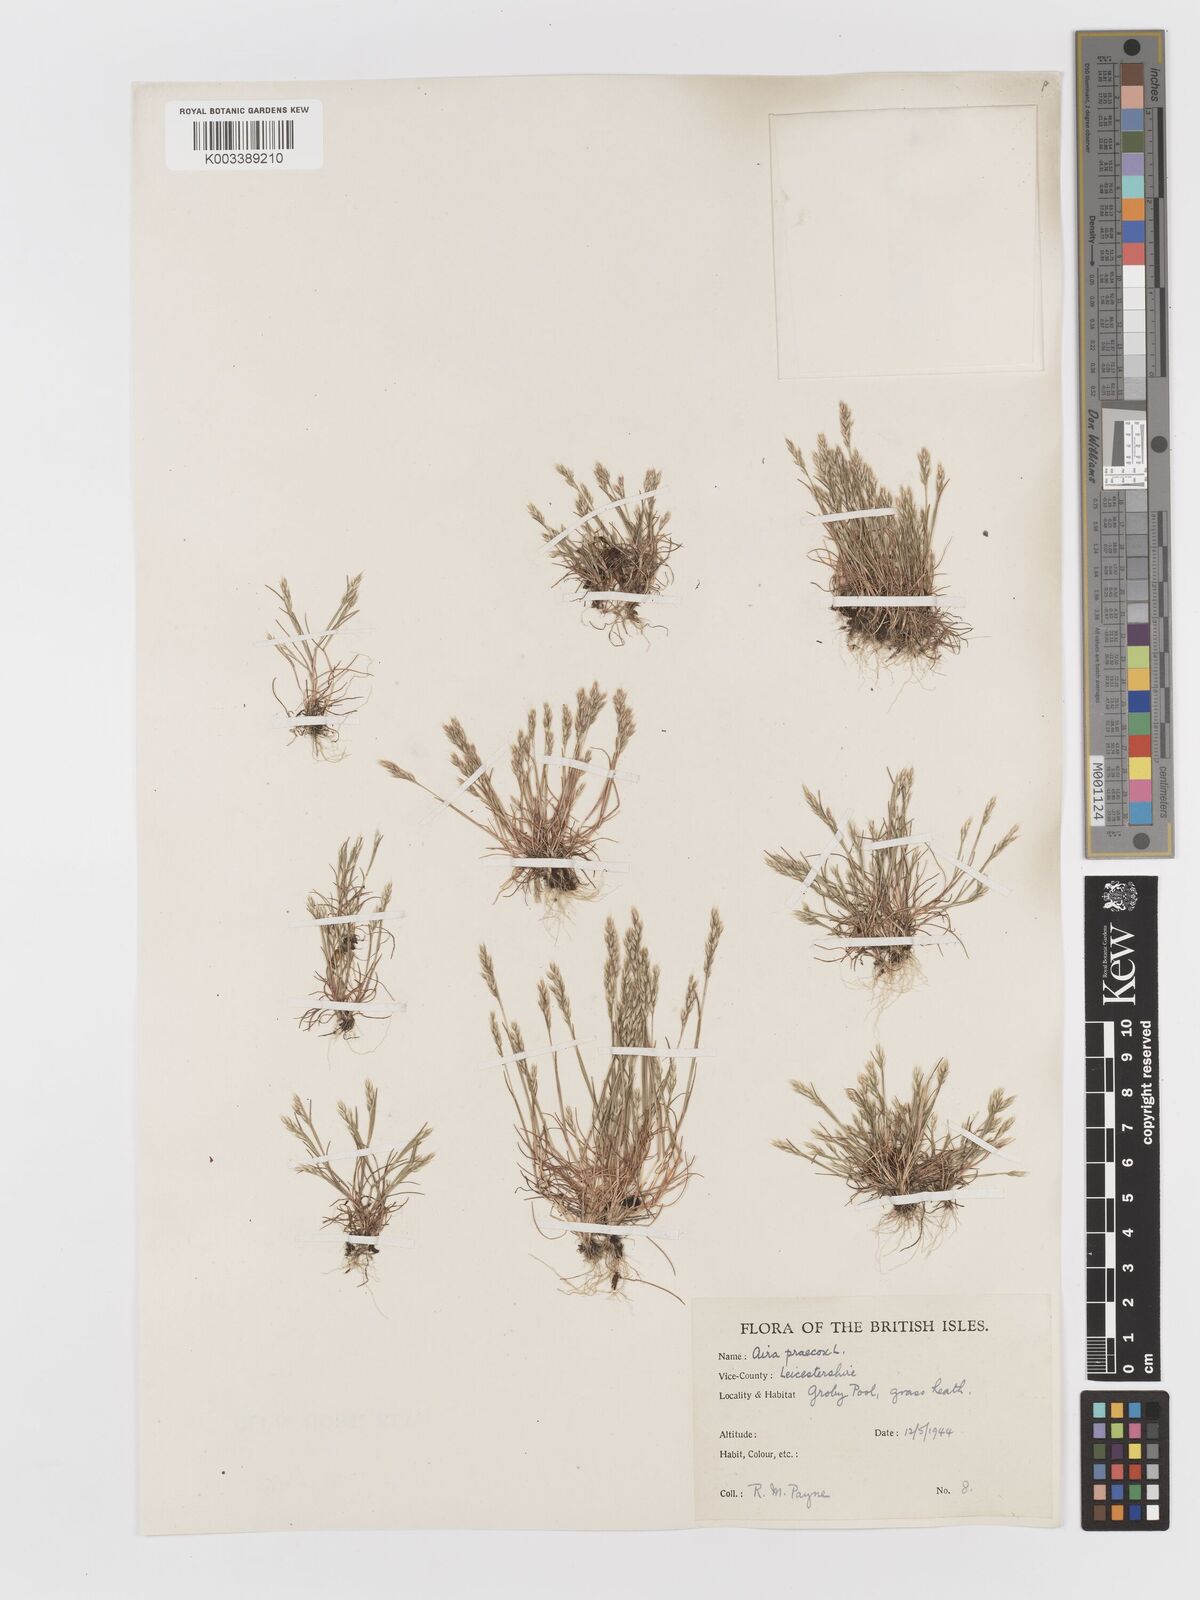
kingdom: Plantae
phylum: Tracheophyta
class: Liliopsida
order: Poales
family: Poaceae
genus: Aira
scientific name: Aira praecox
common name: Early hair-grass
